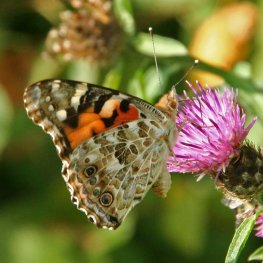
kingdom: Animalia
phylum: Arthropoda
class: Insecta
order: Lepidoptera
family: Nymphalidae
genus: Vanessa
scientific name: Vanessa cardui
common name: Painted Lady
